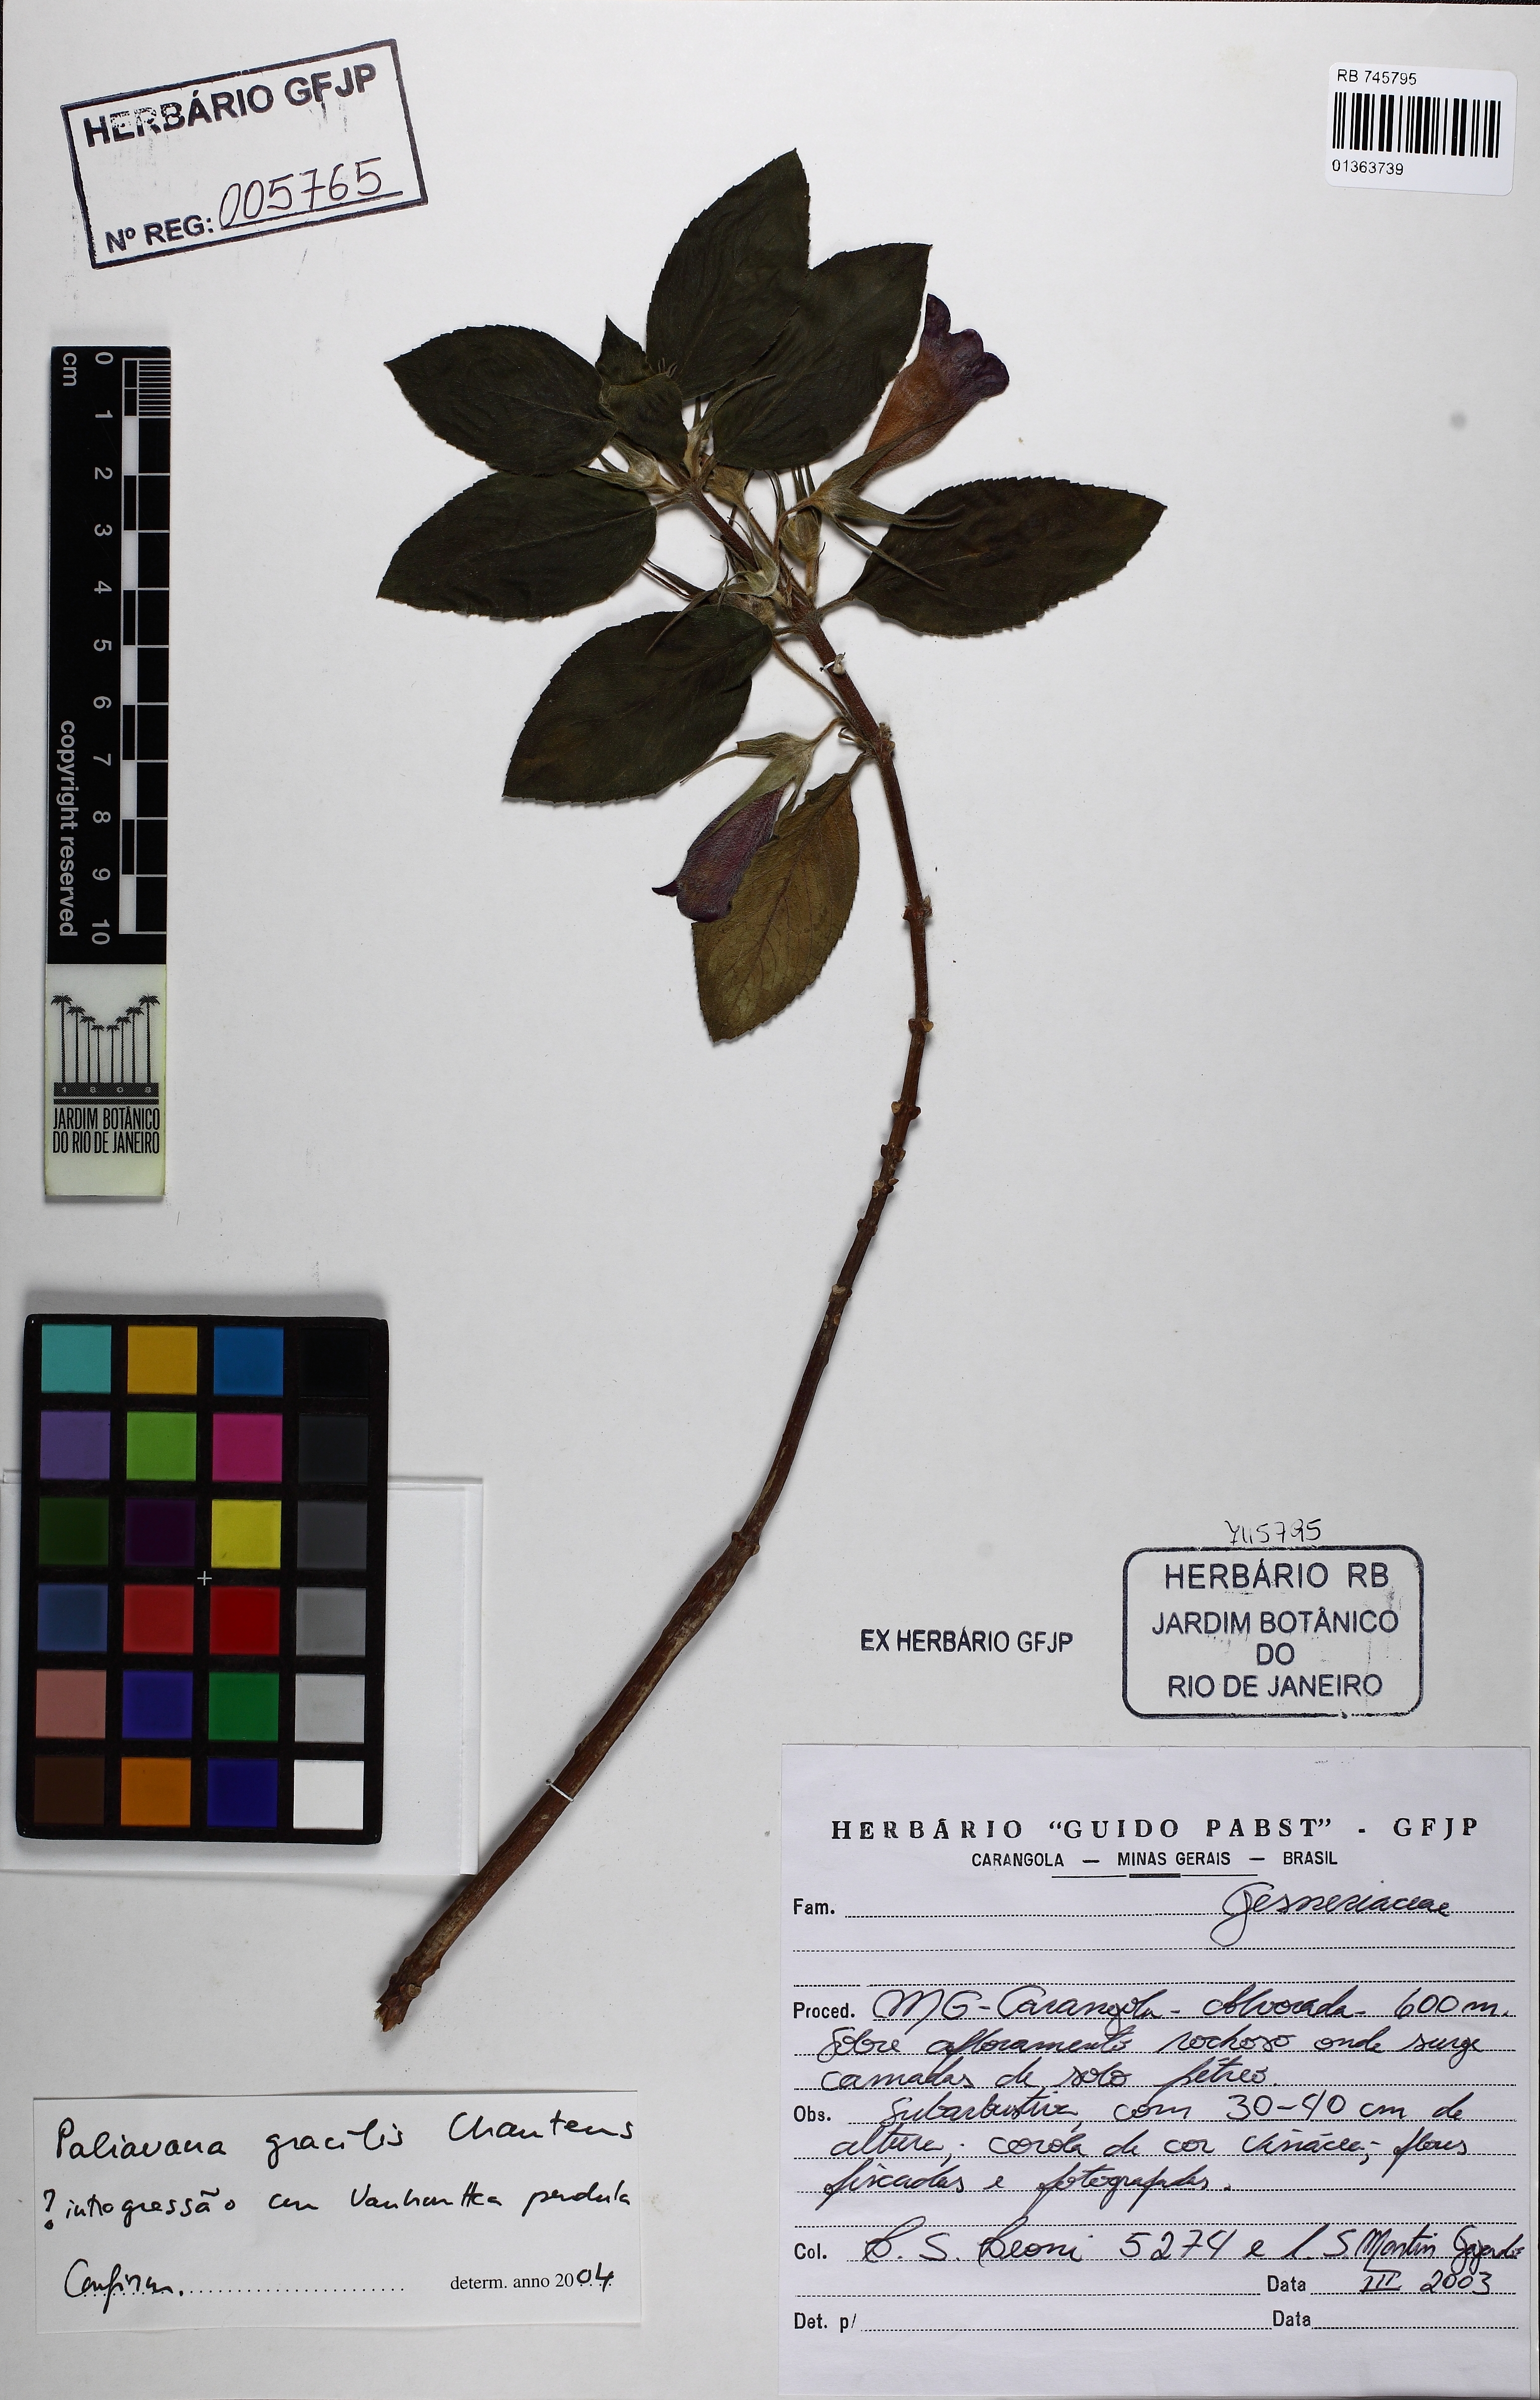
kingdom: Plantae
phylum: Tracheophyta
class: Magnoliopsida
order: Lamiales
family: Gesneriaceae
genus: Paliavana
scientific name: Paliavana gracilis
